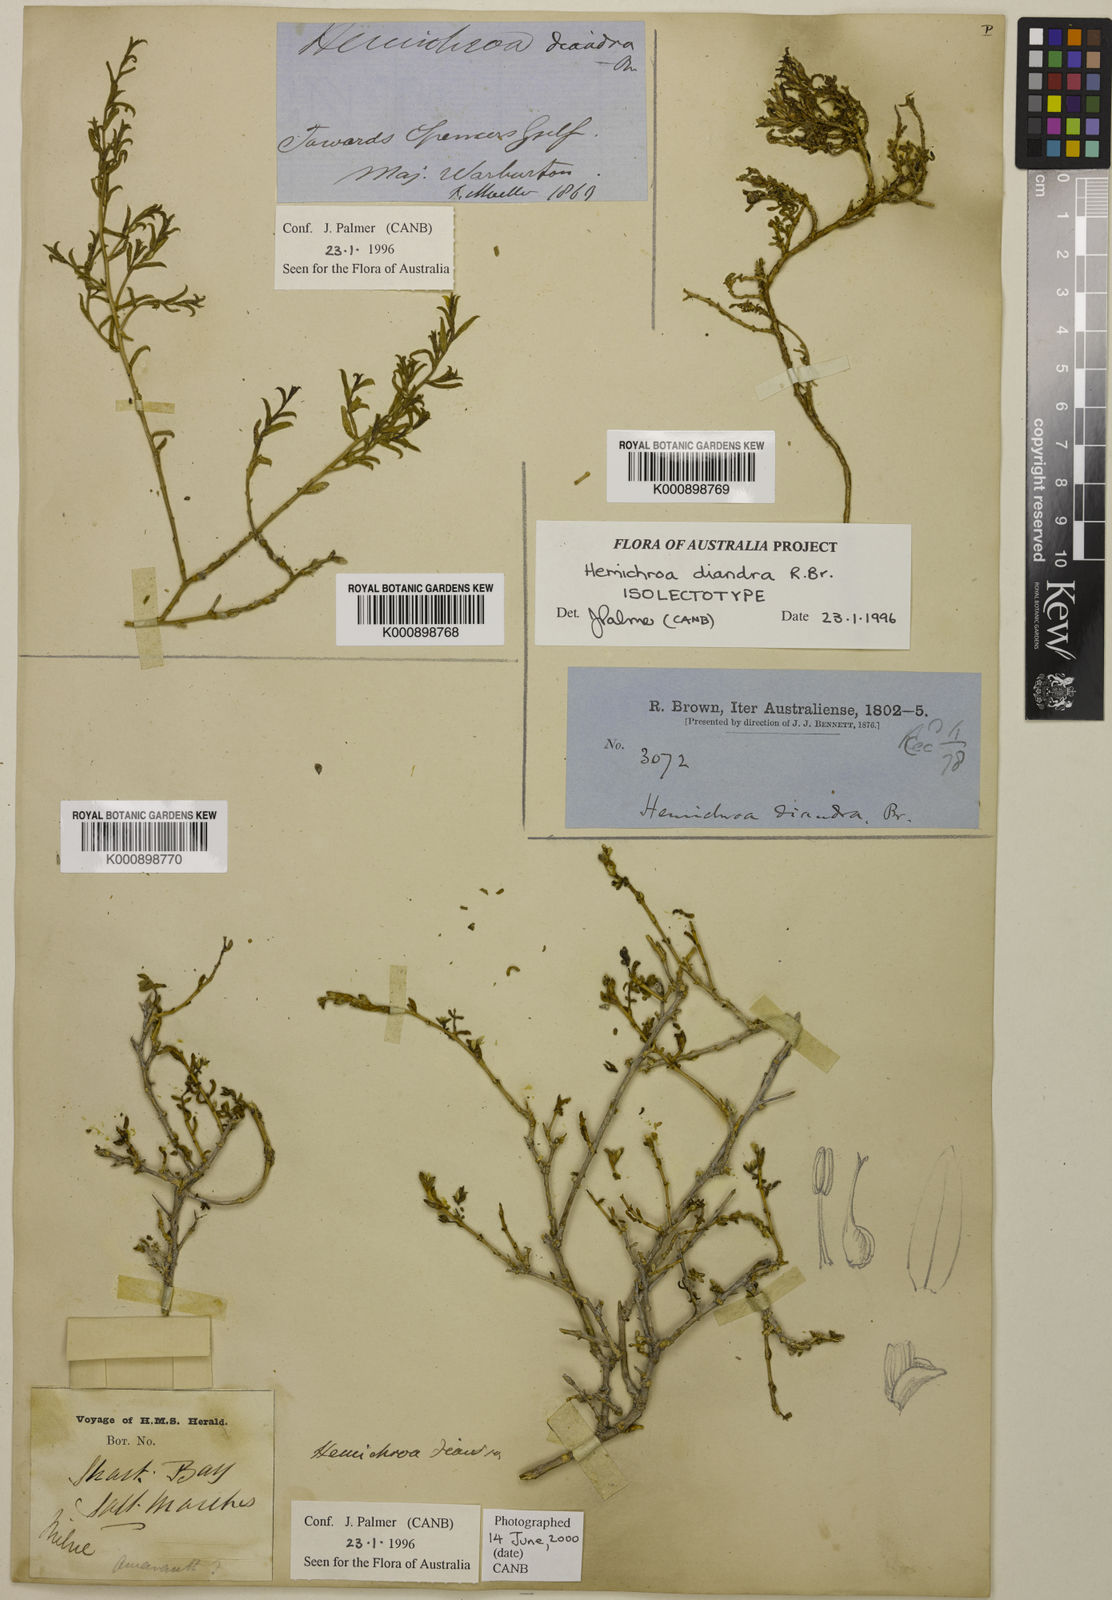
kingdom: Plantae
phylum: Tracheophyta
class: Magnoliopsida
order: Caryophyllales
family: Amaranthaceae
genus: Surreya
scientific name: Surreya diandra
